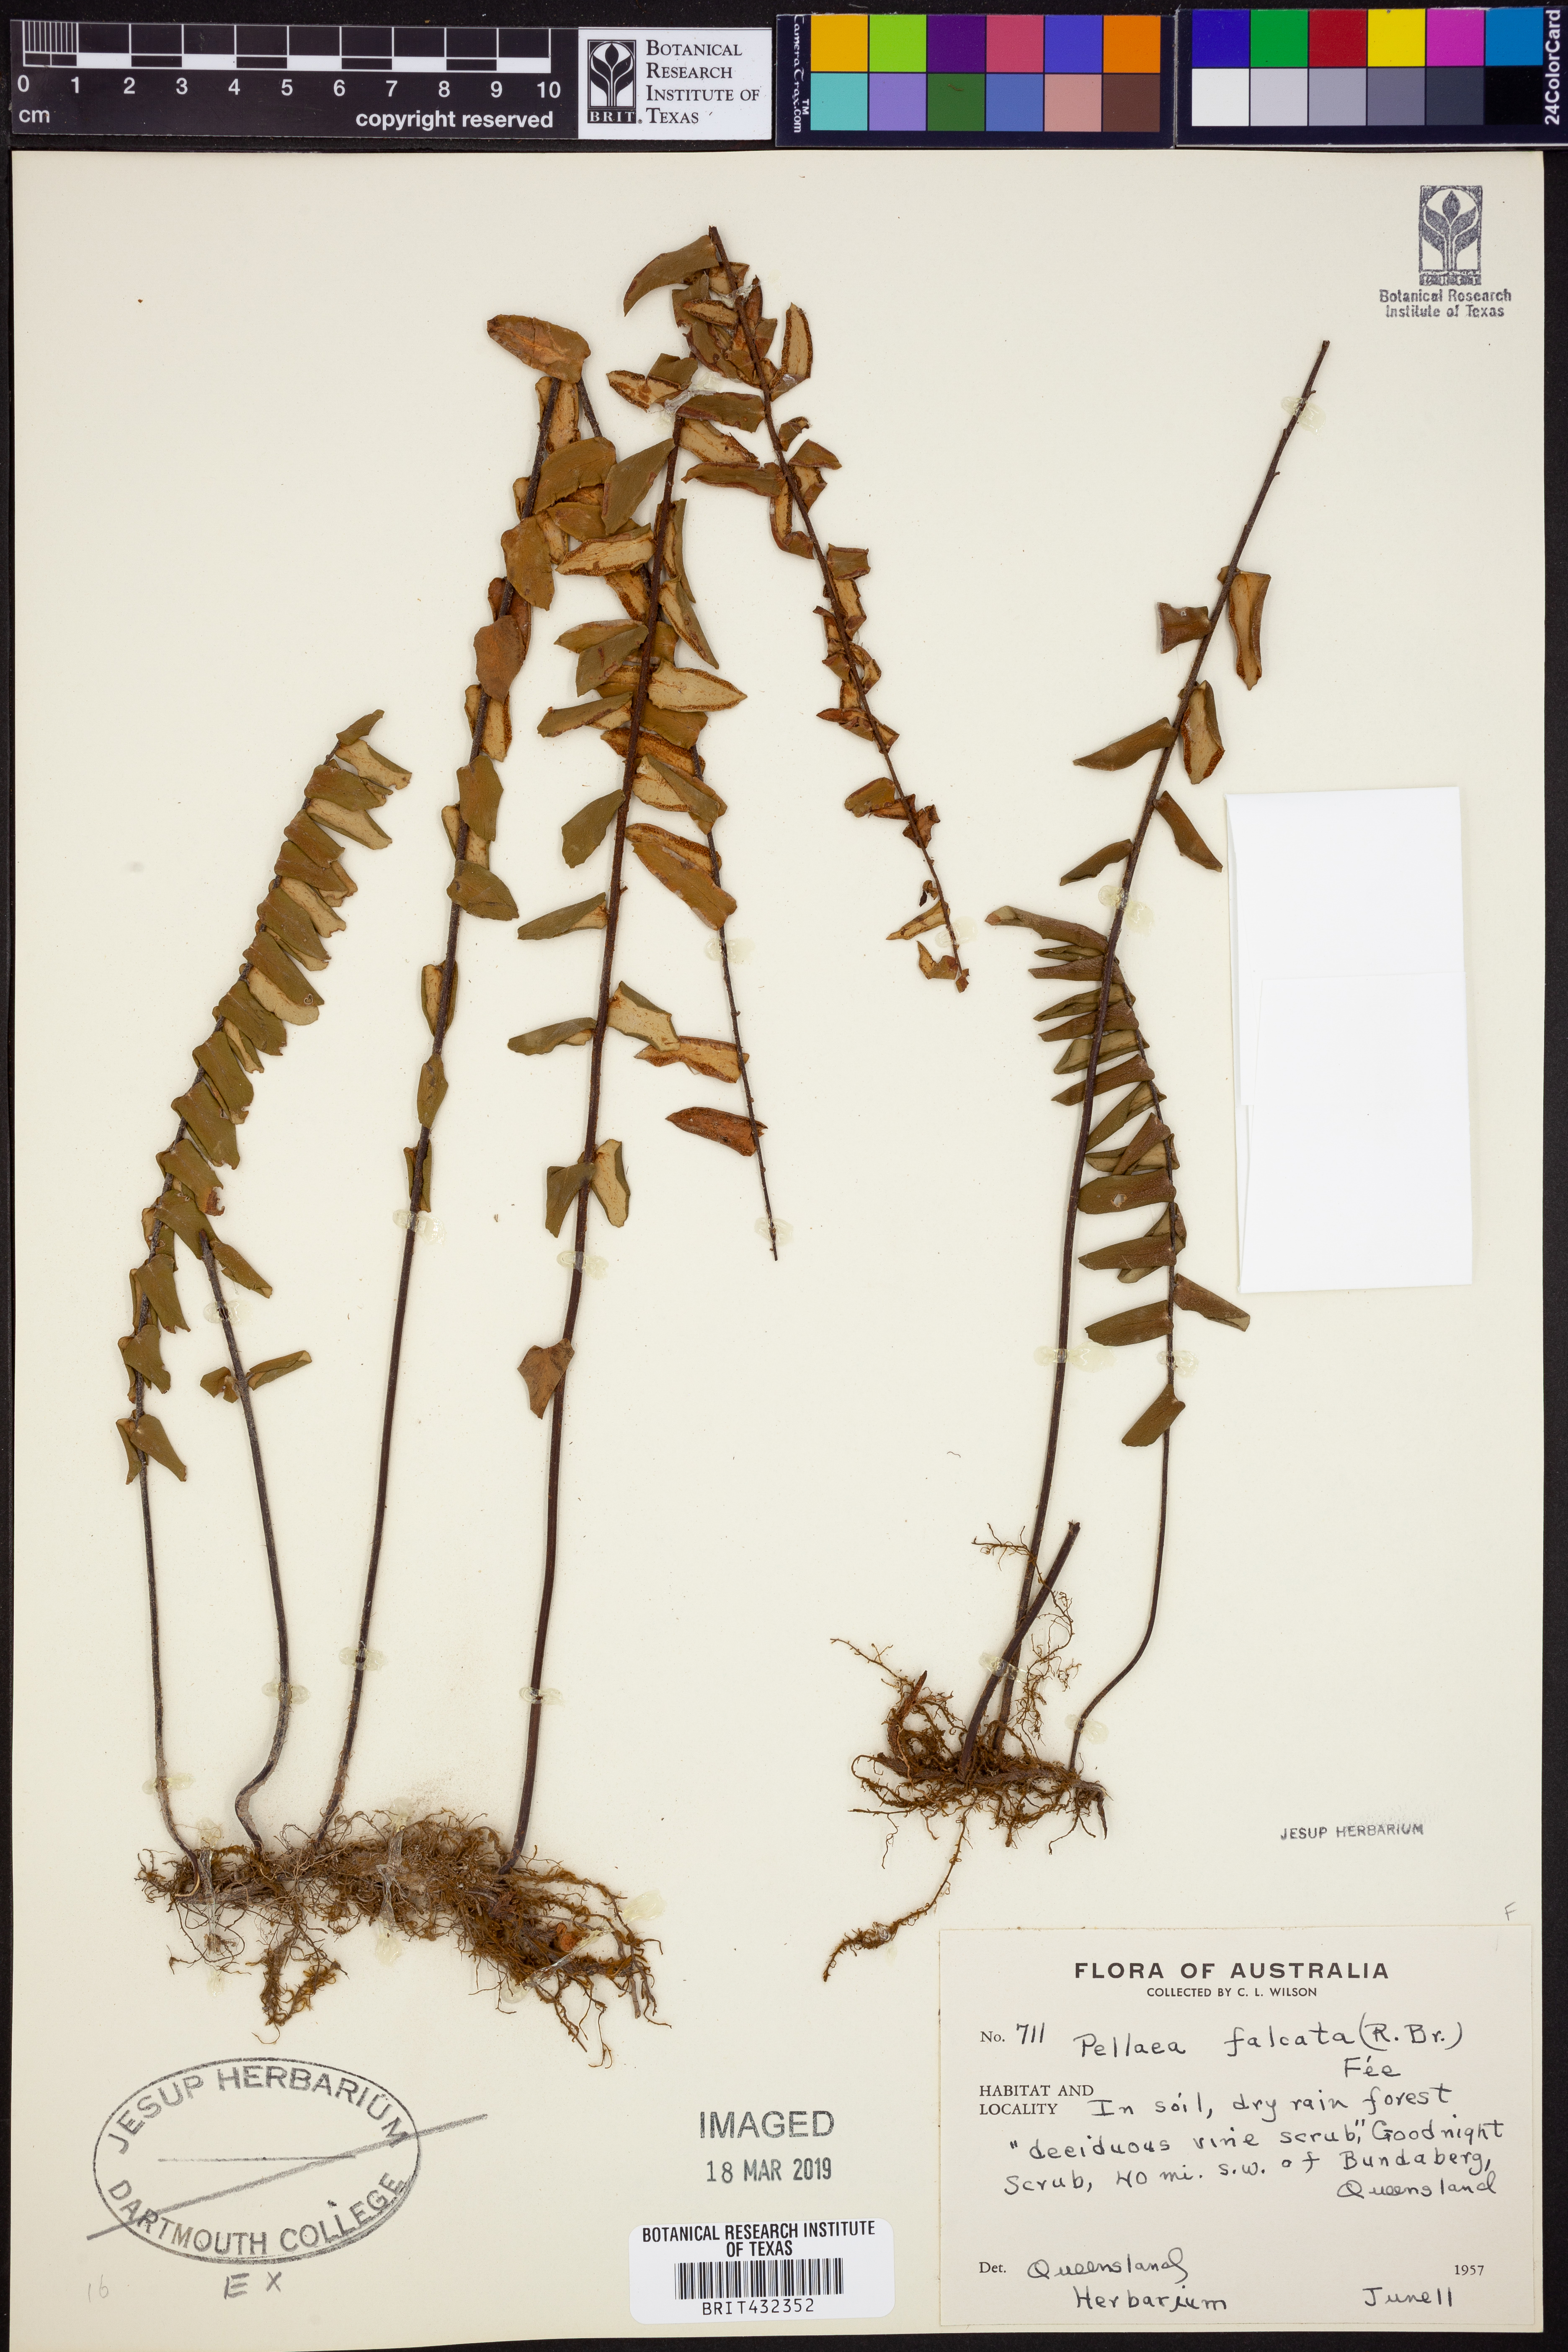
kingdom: Plantae
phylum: Tracheophyta
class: Polypodiopsida
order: Polypodiales
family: Pteridaceae
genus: Pellaea
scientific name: Pellaea falcata
